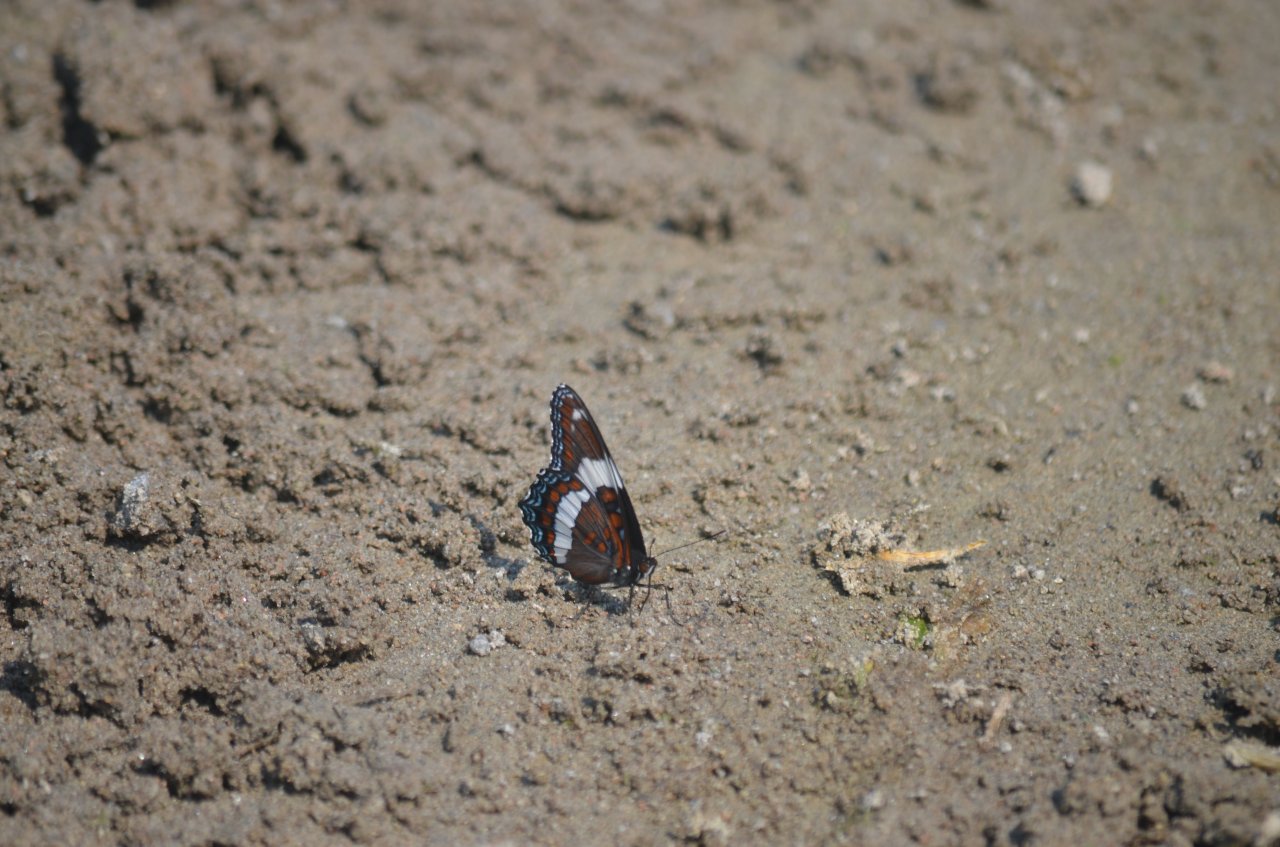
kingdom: Animalia
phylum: Arthropoda
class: Insecta
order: Lepidoptera
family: Nymphalidae
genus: Limenitis
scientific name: Limenitis arthemis
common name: Red-spotted Admiral
